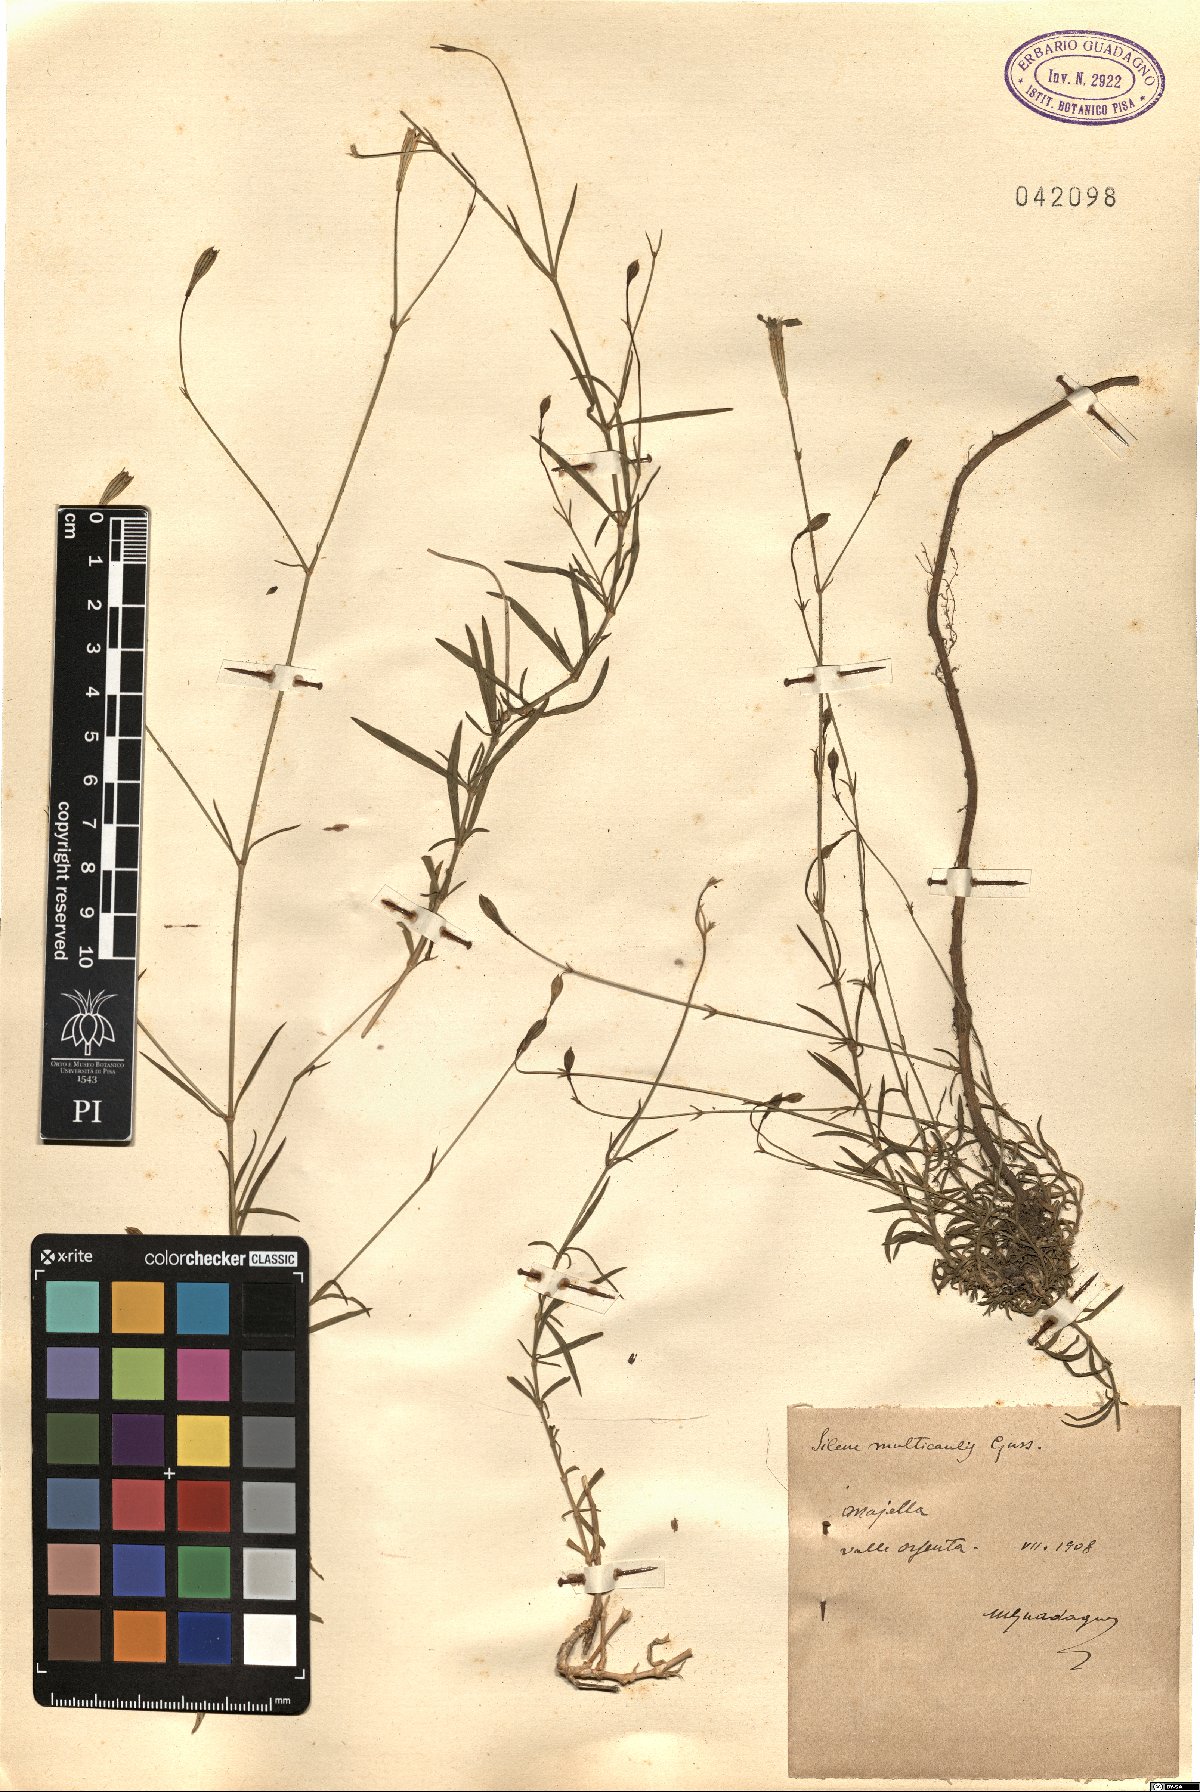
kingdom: Plantae
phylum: Tracheophyta
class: Magnoliopsida
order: Caryophyllales
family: Caryophyllaceae
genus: Silene
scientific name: Silene multicaulis
